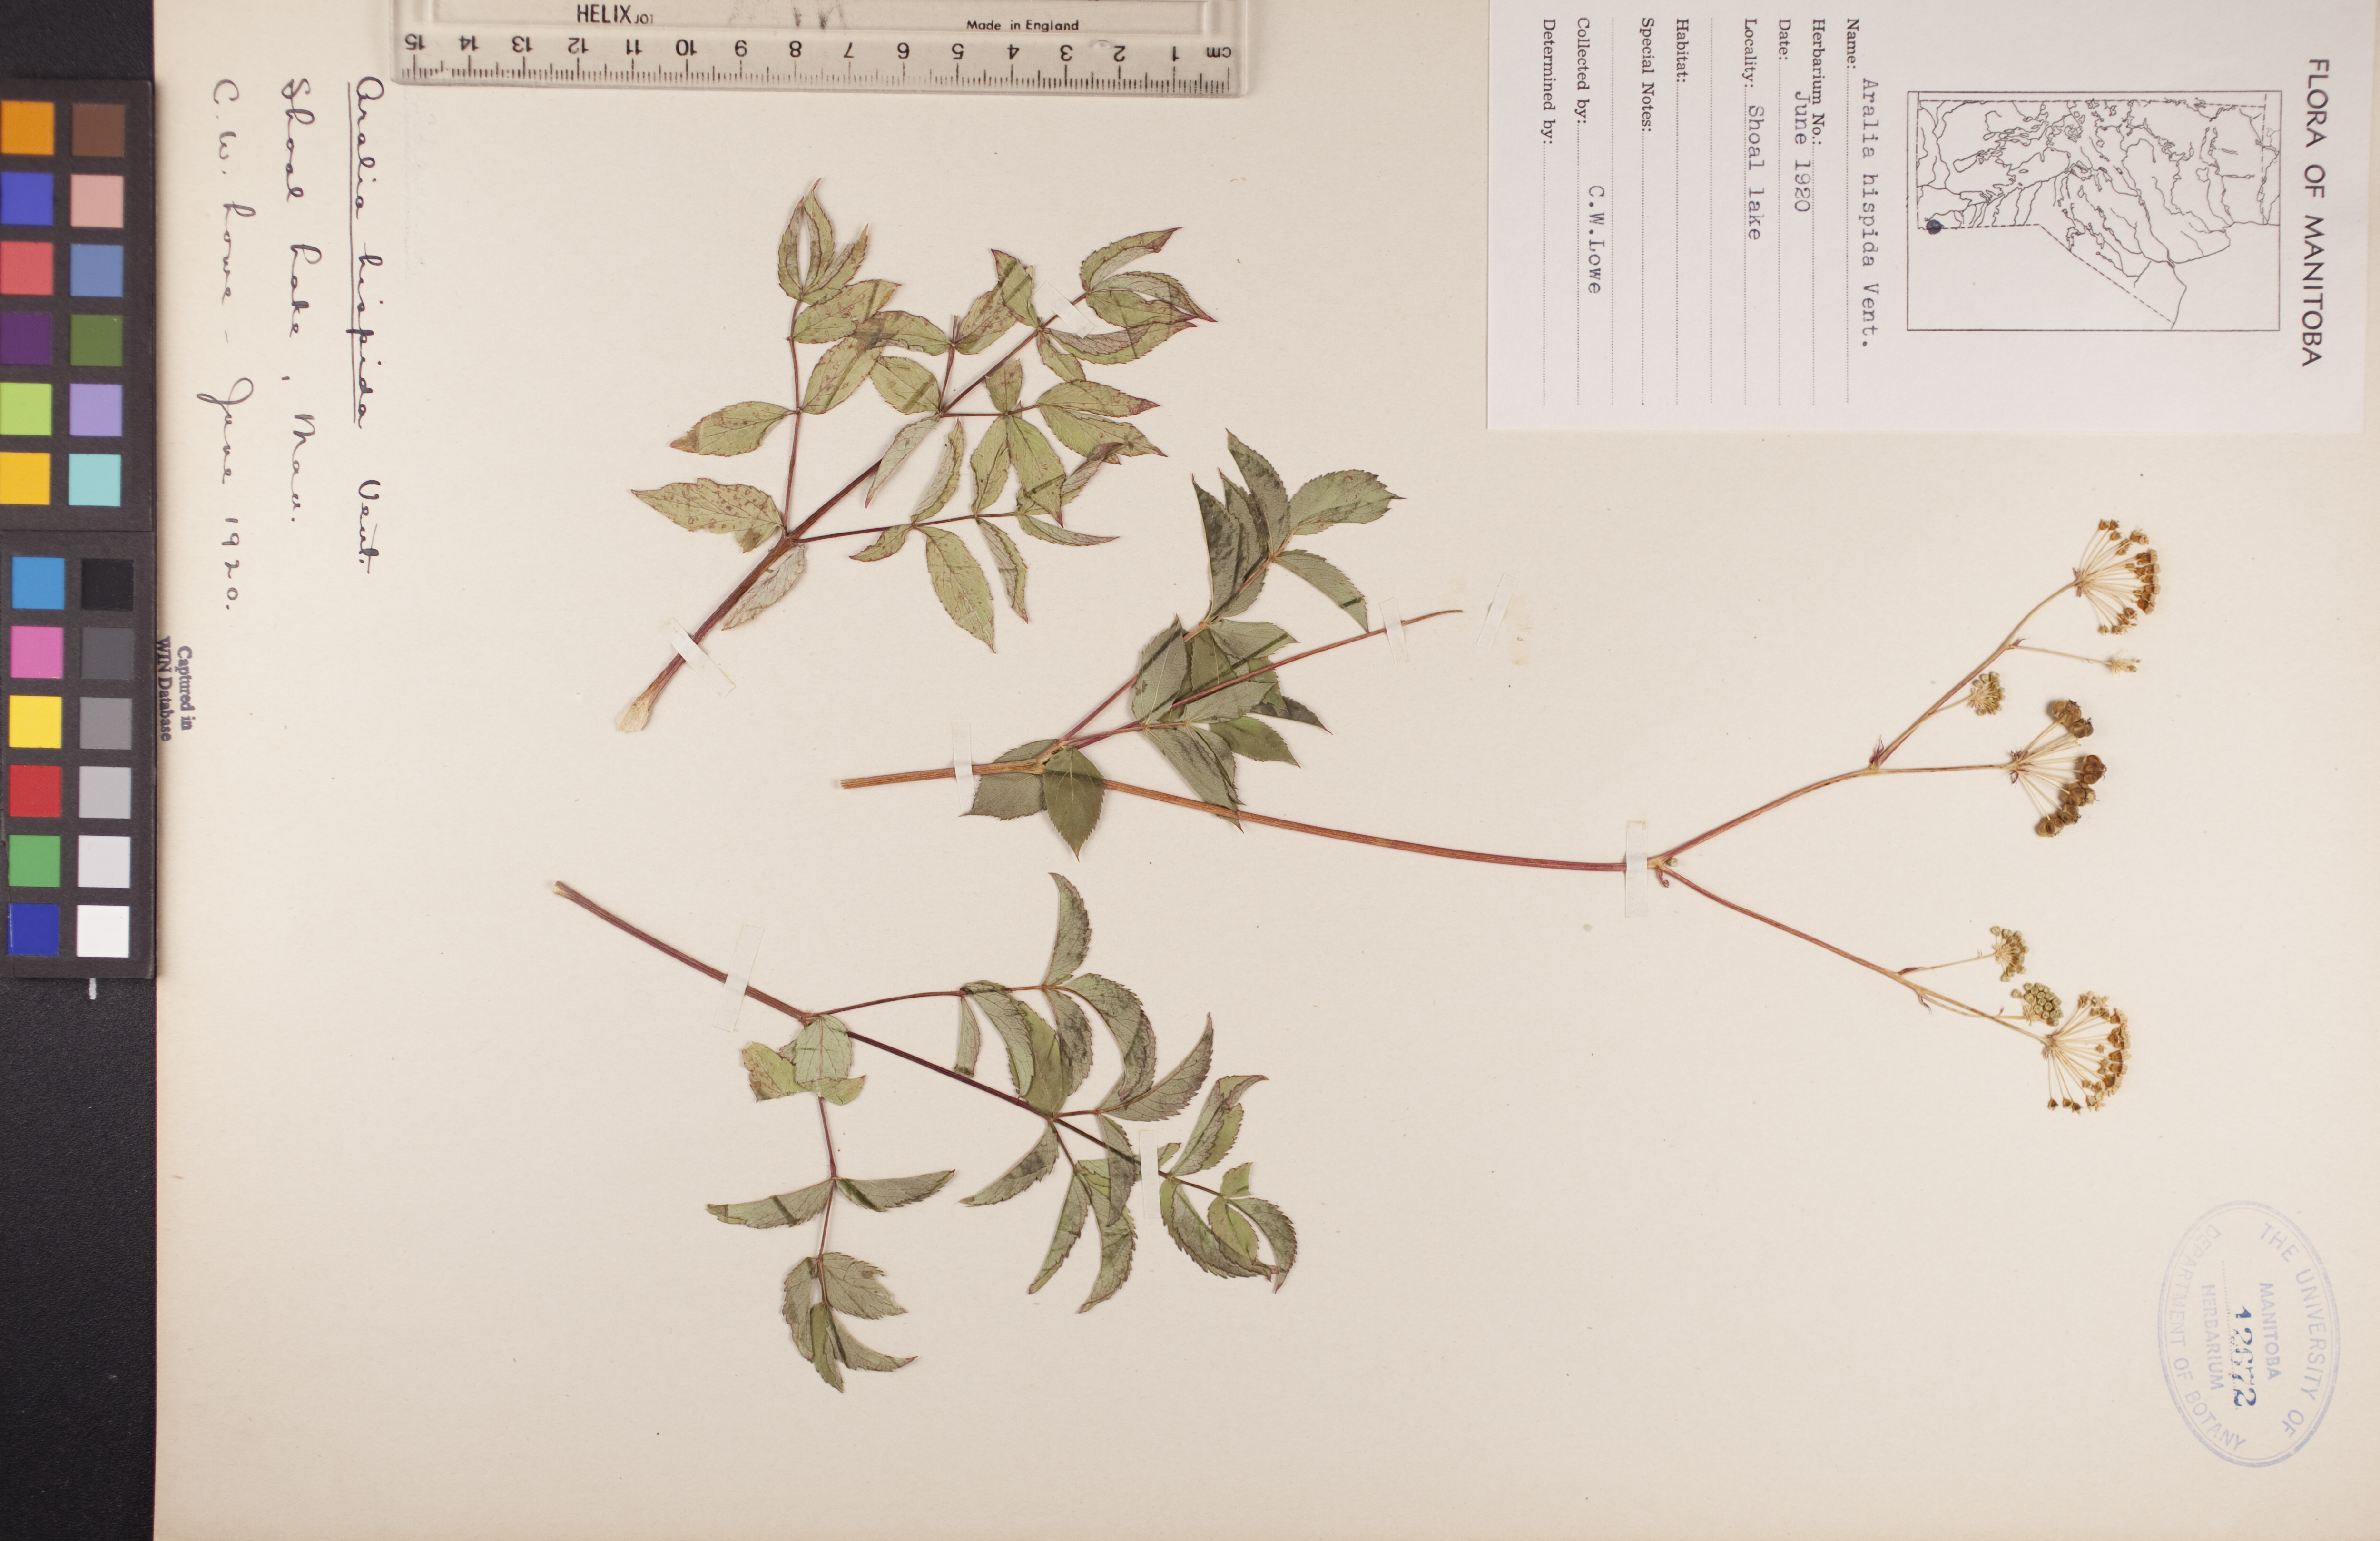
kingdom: Plantae
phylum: Tracheophyta
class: Magnoliopsida
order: Apiales
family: Araliaceae
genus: Aralia
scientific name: Aralia hispida
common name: Bristly sarsaparilla
